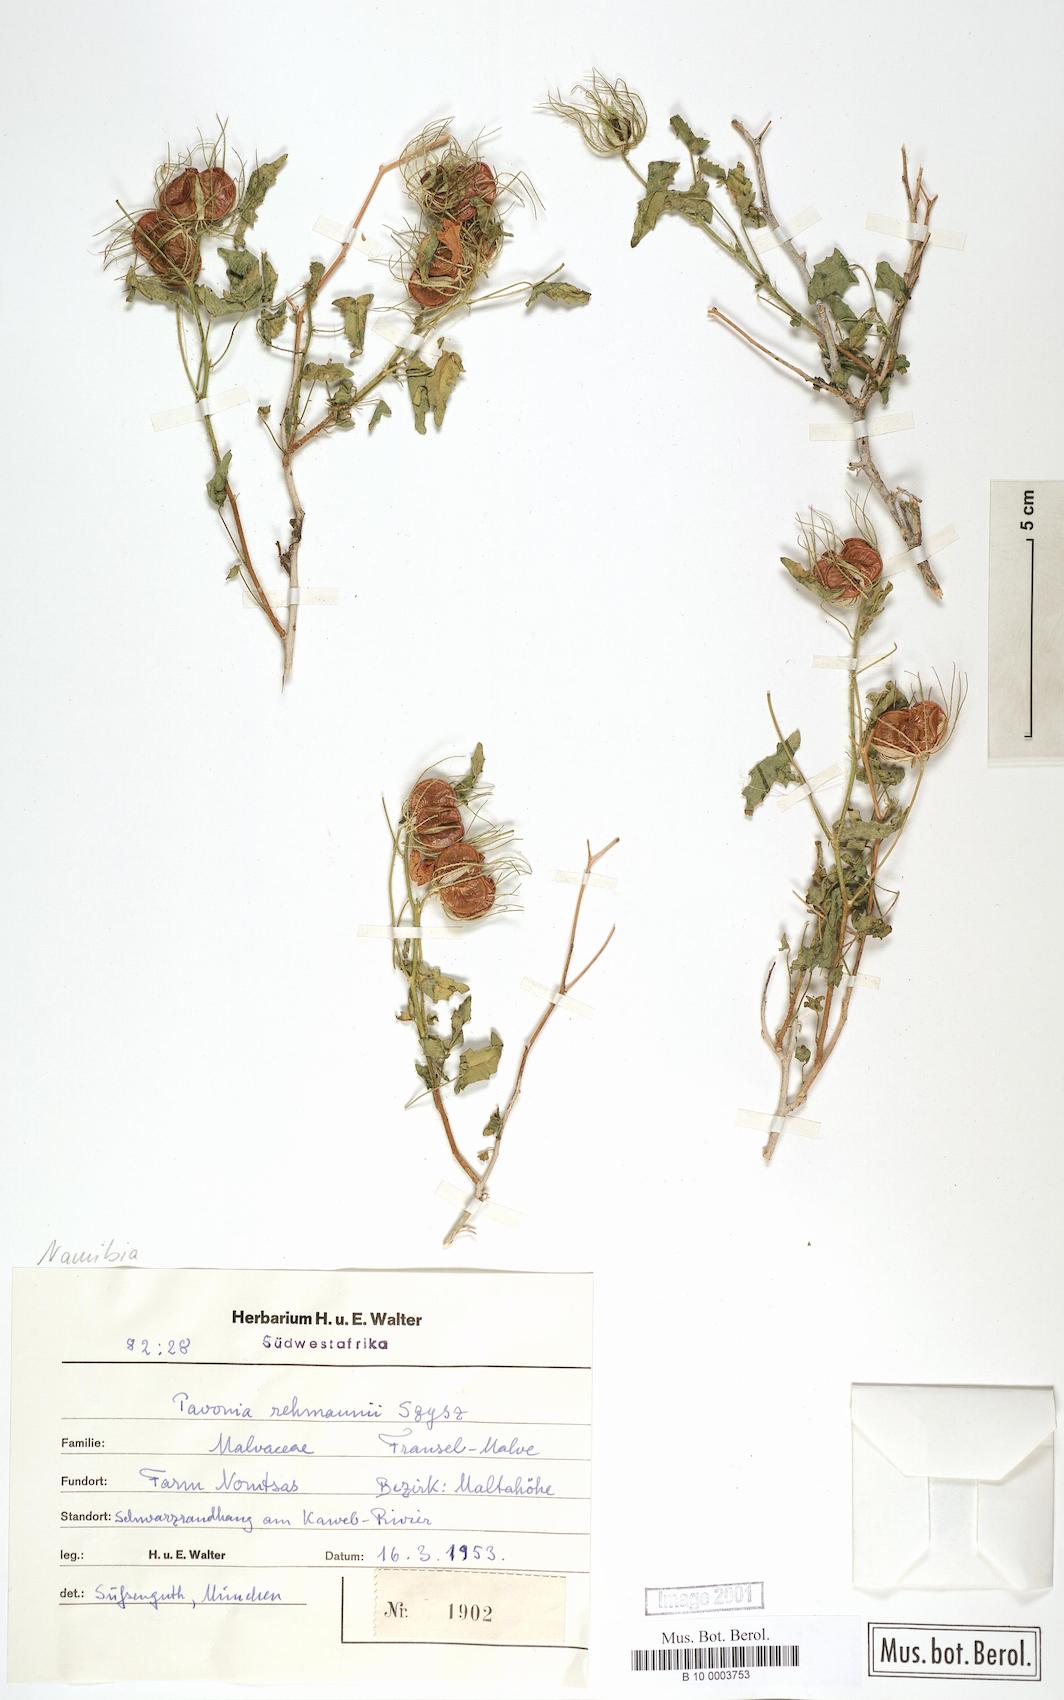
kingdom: Plantae
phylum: Tracheophyta
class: Magnoliopsida
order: Malvales
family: Malvaceae
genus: Pavonia
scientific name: Pavonia rehmannii
